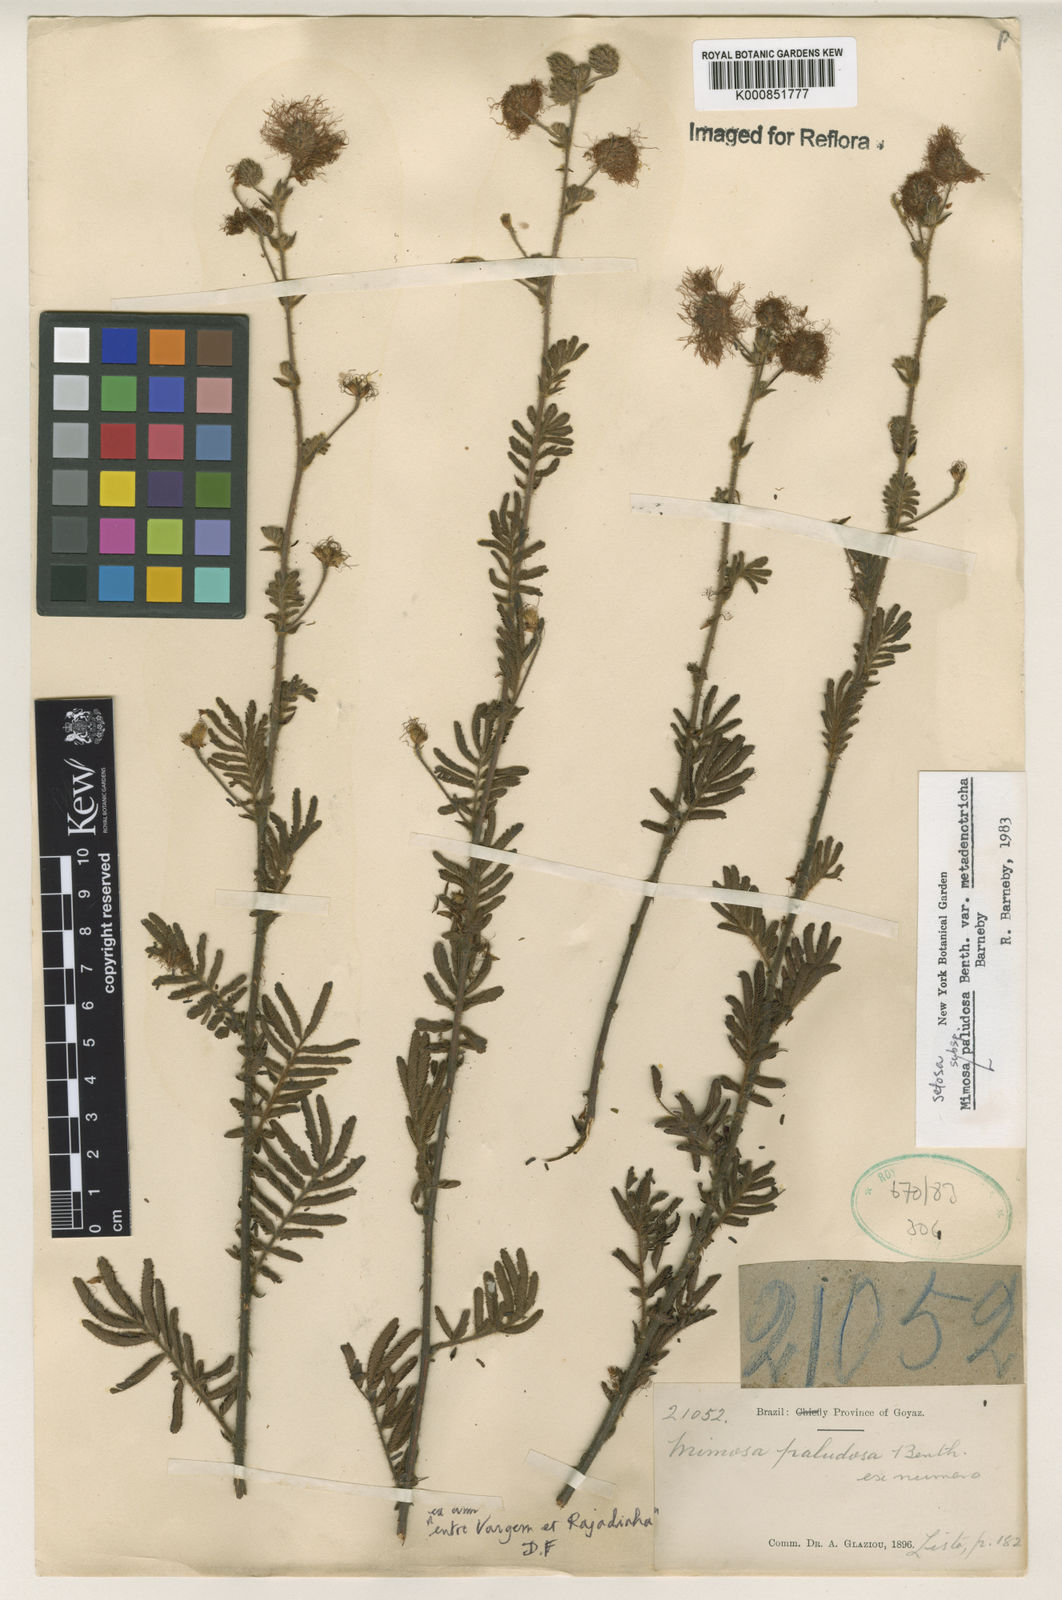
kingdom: Plantae
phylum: Tracheophyta
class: Magnoliopsida
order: Fabales
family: Fabaceae
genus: Mimosa
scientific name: Mimosa setosa
